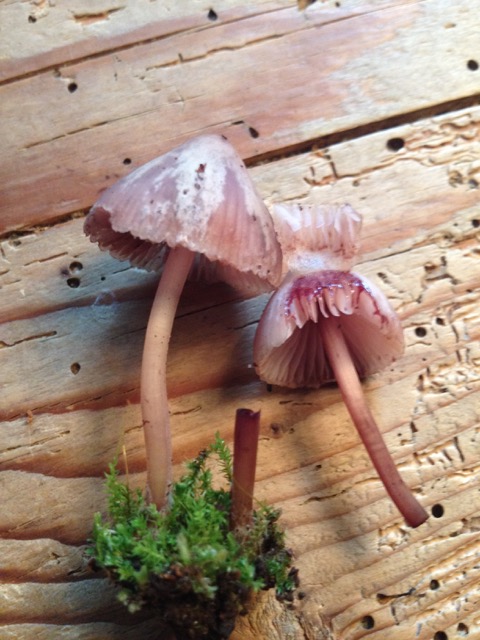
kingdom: Fungi
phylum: Basidiomycota
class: Agaricomycetes
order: Agaricales
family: Mycenaceae
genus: Mycena
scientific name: Mycena haematopus
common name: blødende huesvamp
